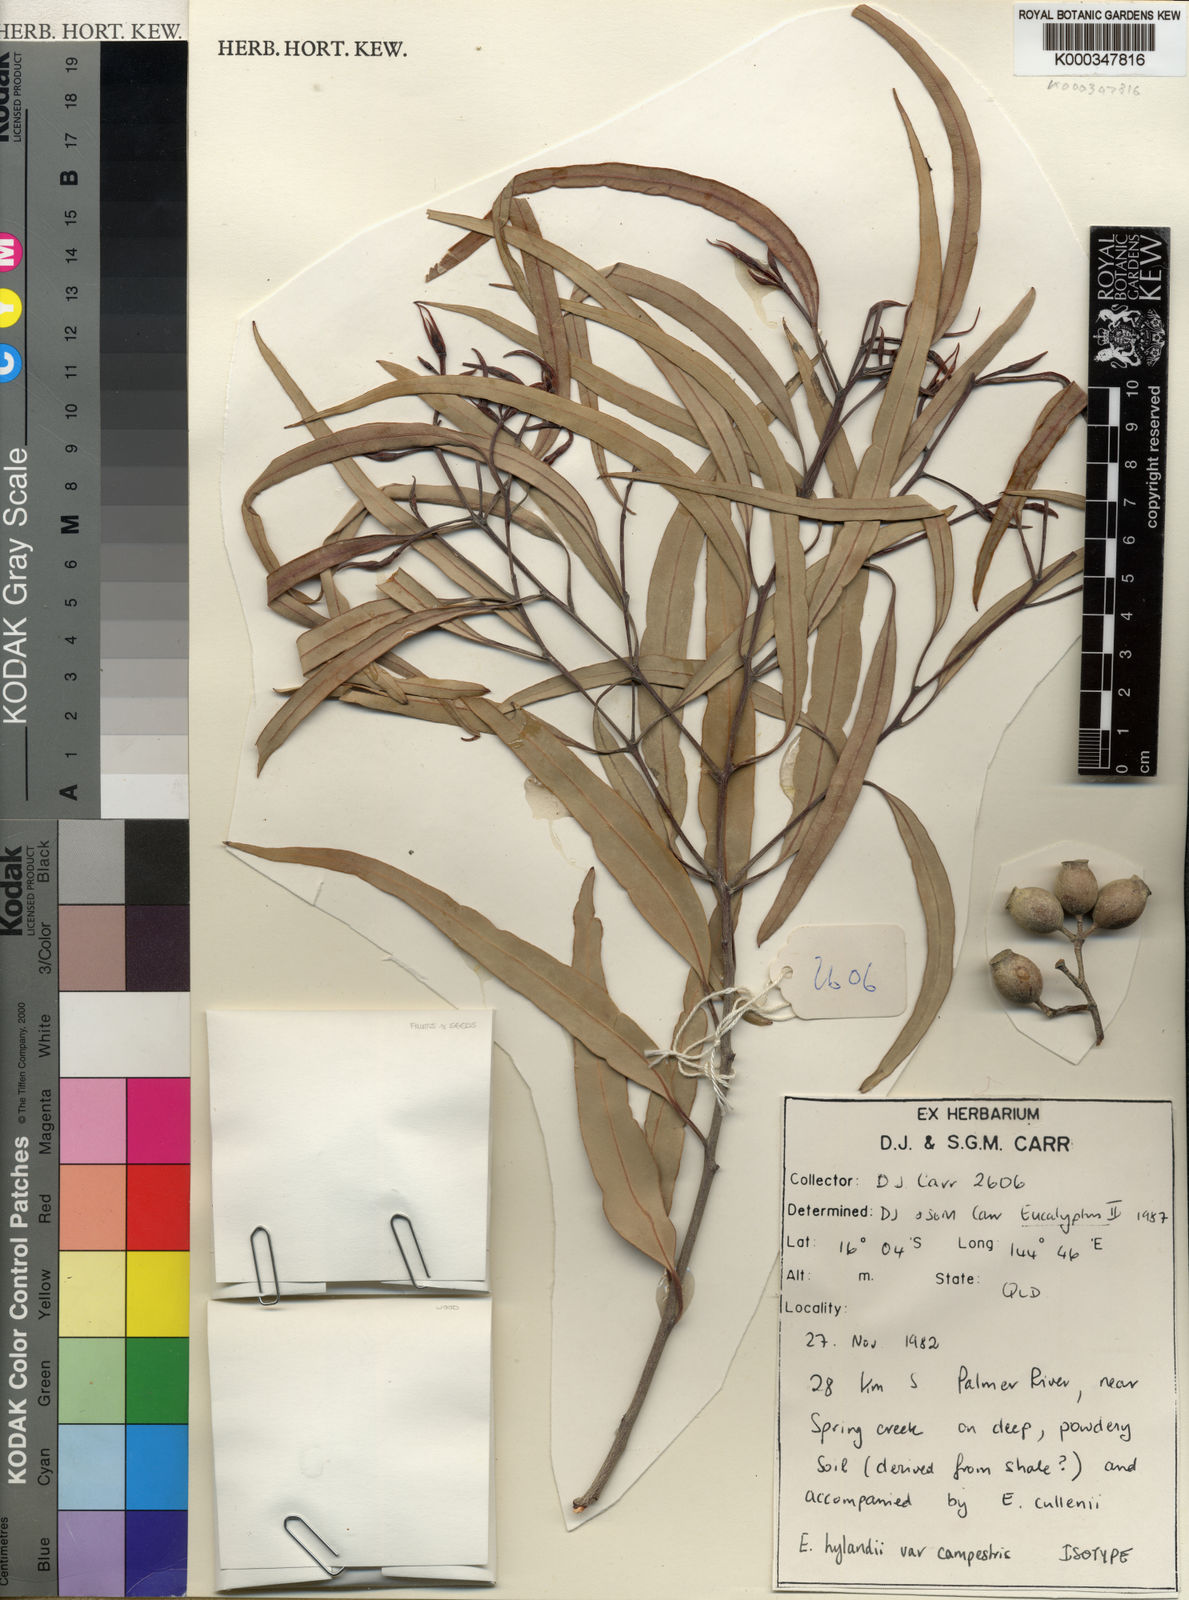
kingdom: Plantae
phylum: Tracheophyta
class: Magnoliopsida
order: Myrtales
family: Myrtaceae
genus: Corymbia
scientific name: Corymbia hylandii
